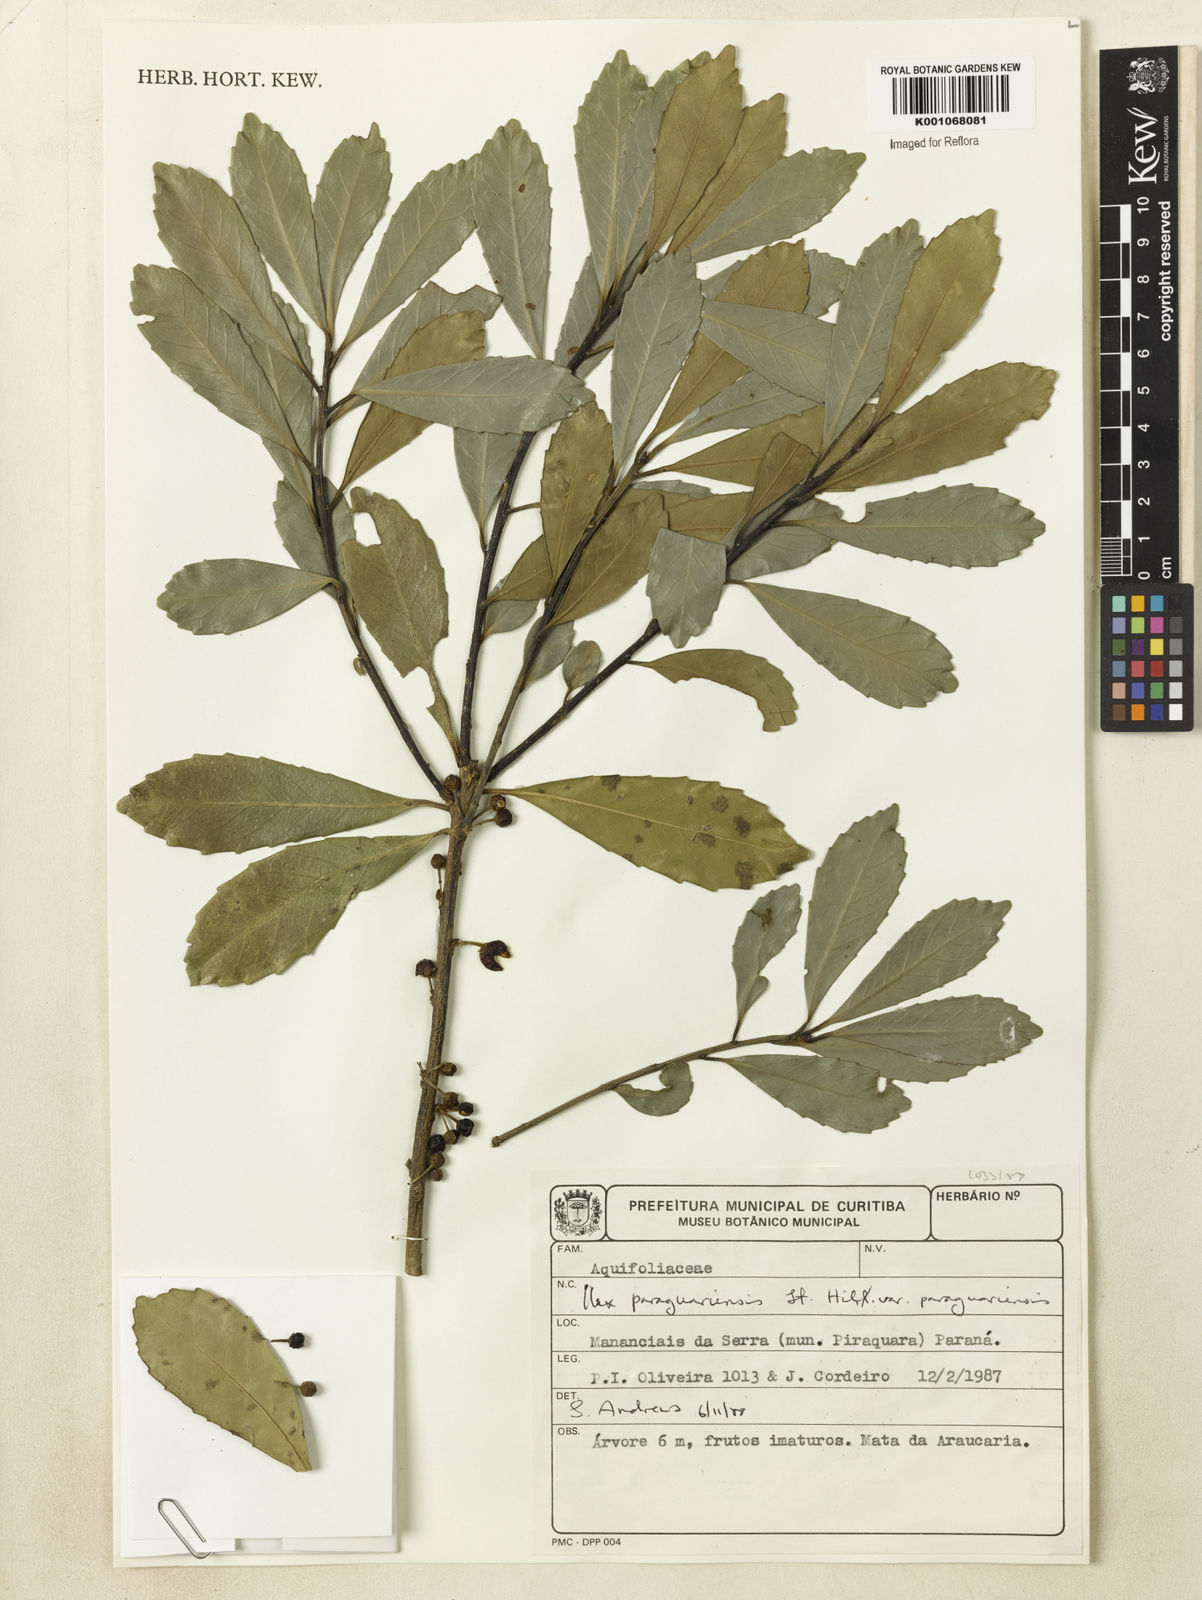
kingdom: Plantae
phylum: Tracheophyta
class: Magnoliopsida
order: Aquifoliales
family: Aquifoliaceae
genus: Ilex
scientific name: Ilex paraguariensis
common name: Paraguay tea
